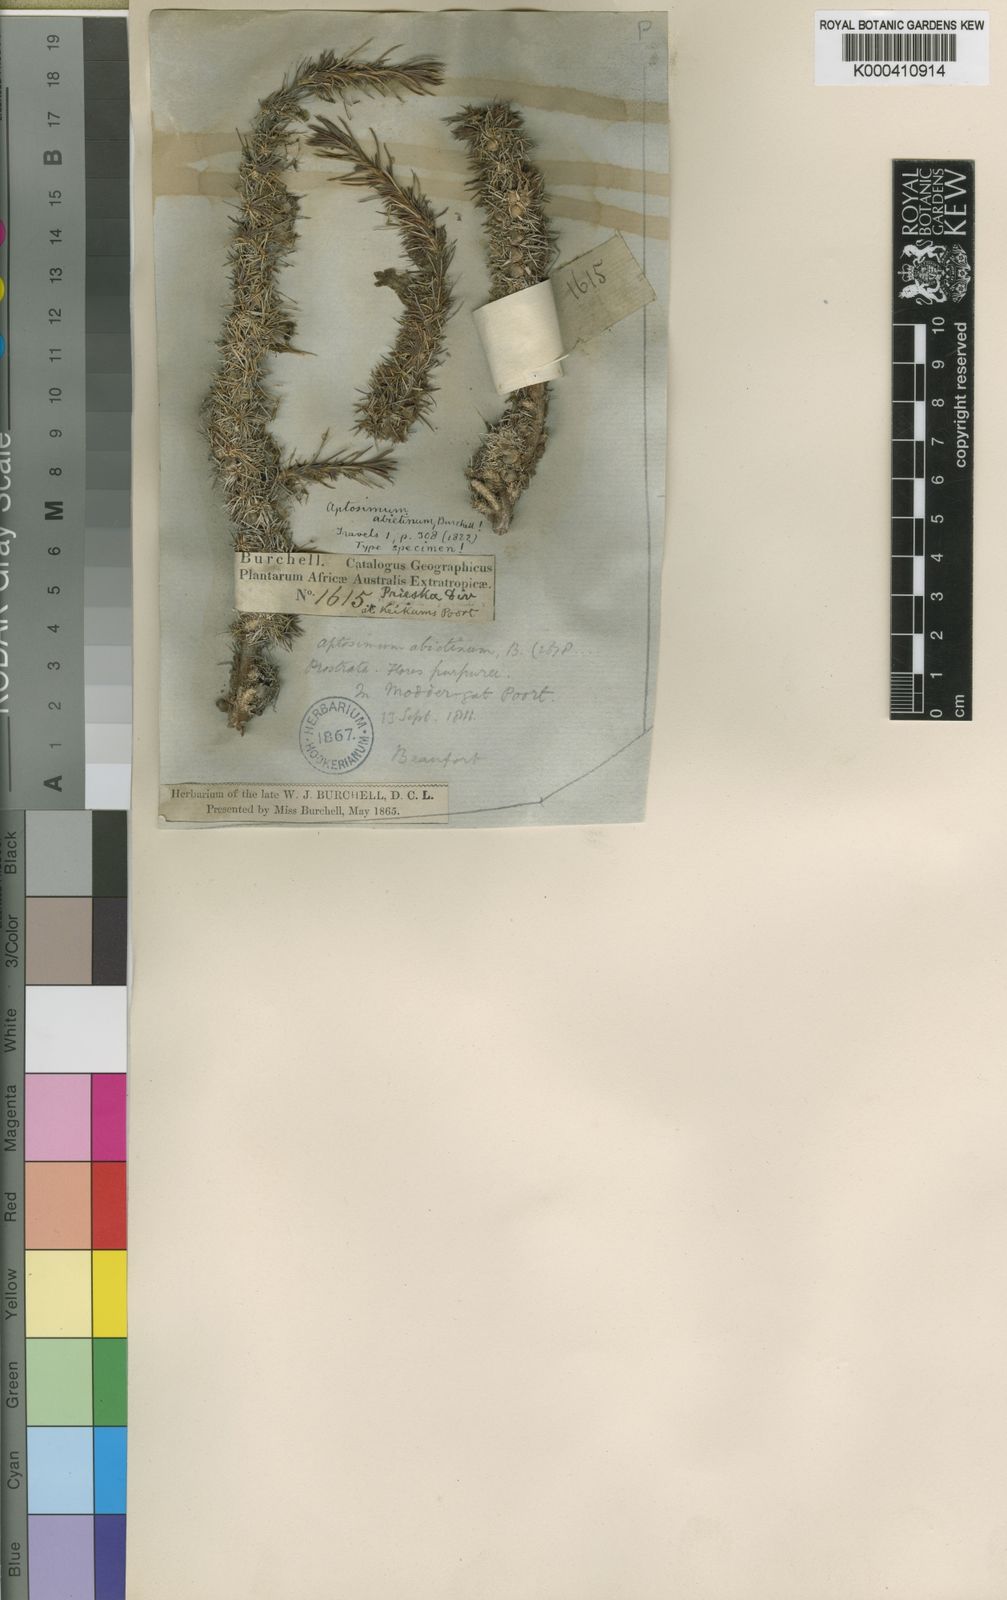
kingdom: Plantae
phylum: Tracheophyta
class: Magnoliopsida
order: Lamiales
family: Scrophulariaceae
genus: Aptosimum
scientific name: Aptosimum spinescens
